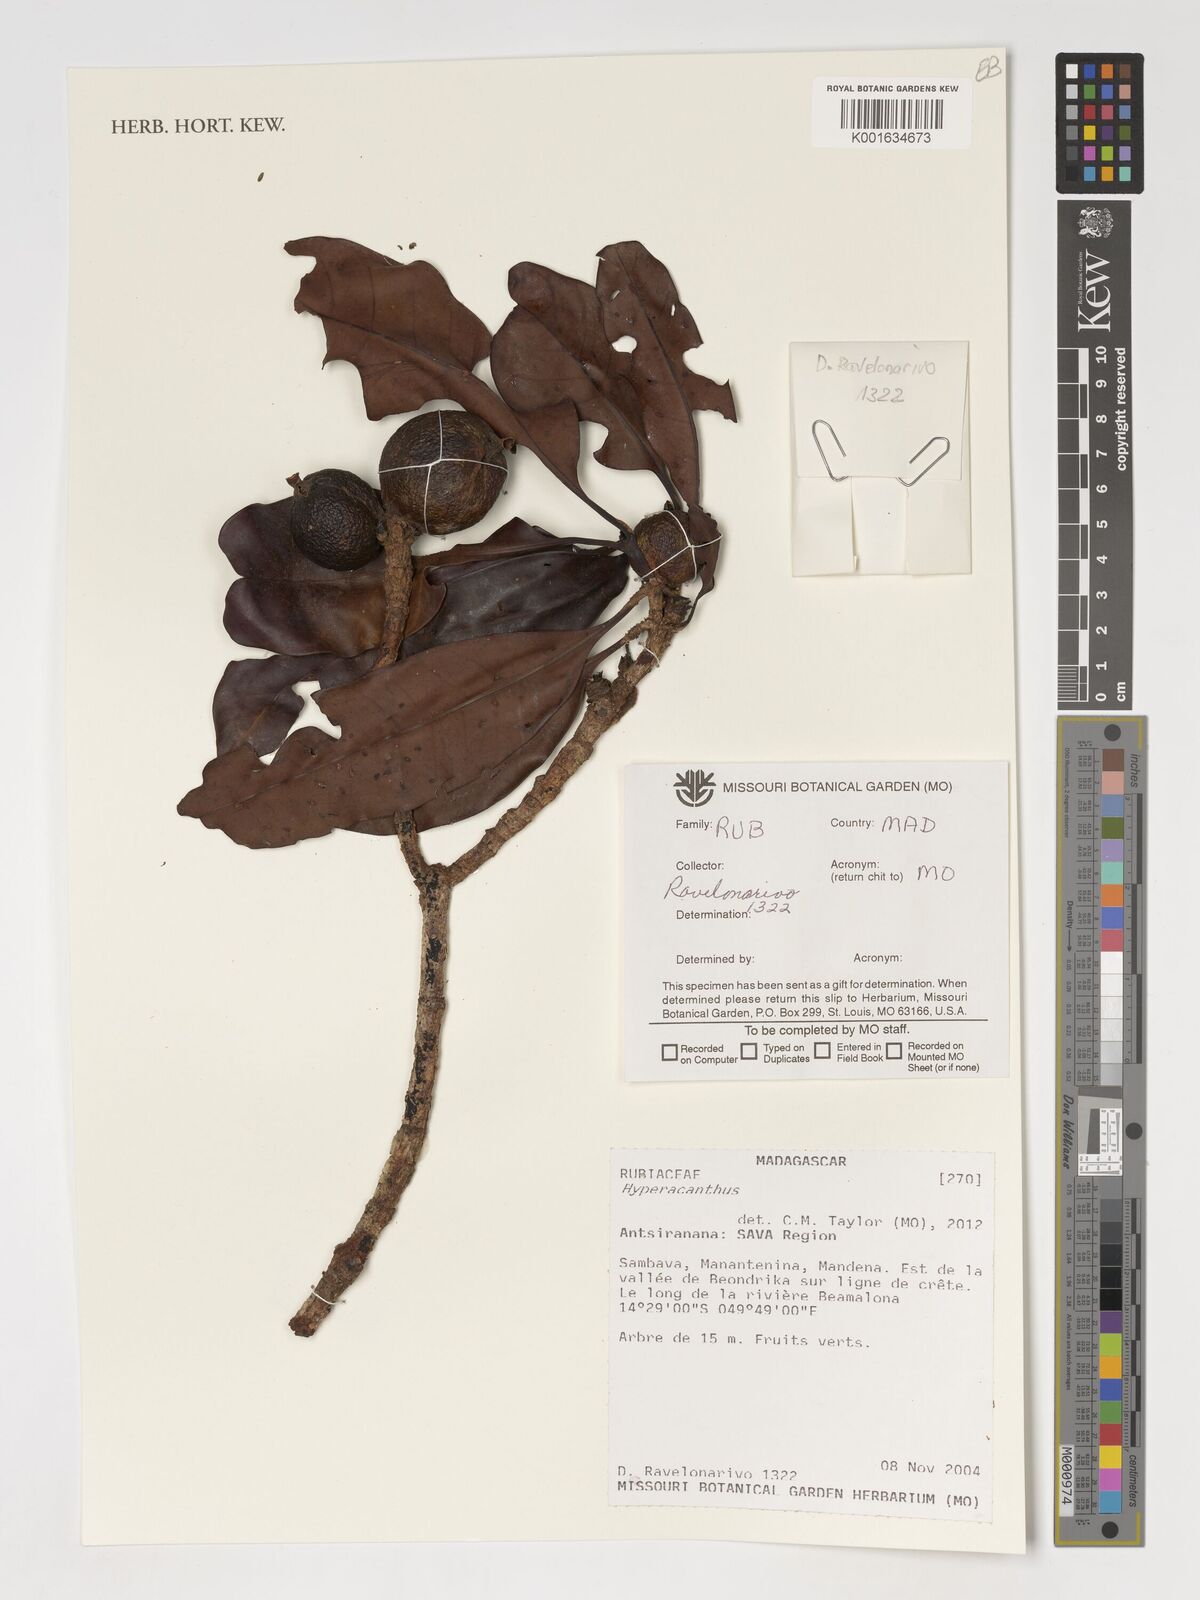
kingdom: Plantae
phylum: Tracheophyta
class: Magnoliopsida
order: Gentianales
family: Rubiaceae
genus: Hyperacanthus
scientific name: Hyperacanthus
